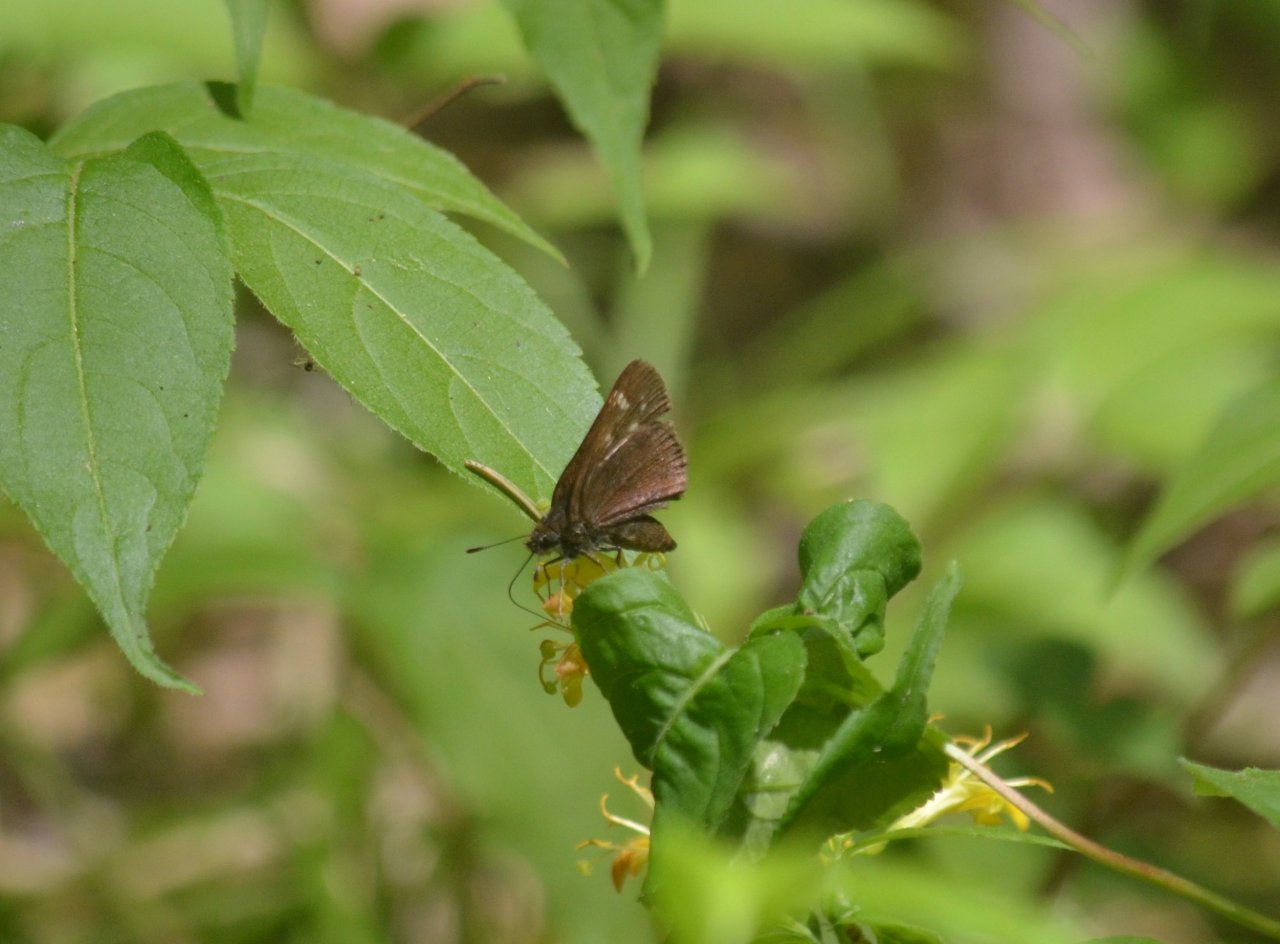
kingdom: Animalia
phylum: Arthropoda
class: Insecta
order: Lepidoptera
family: Hesperiidae
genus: Autochton
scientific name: Autochton
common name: Northern Cloudywing
